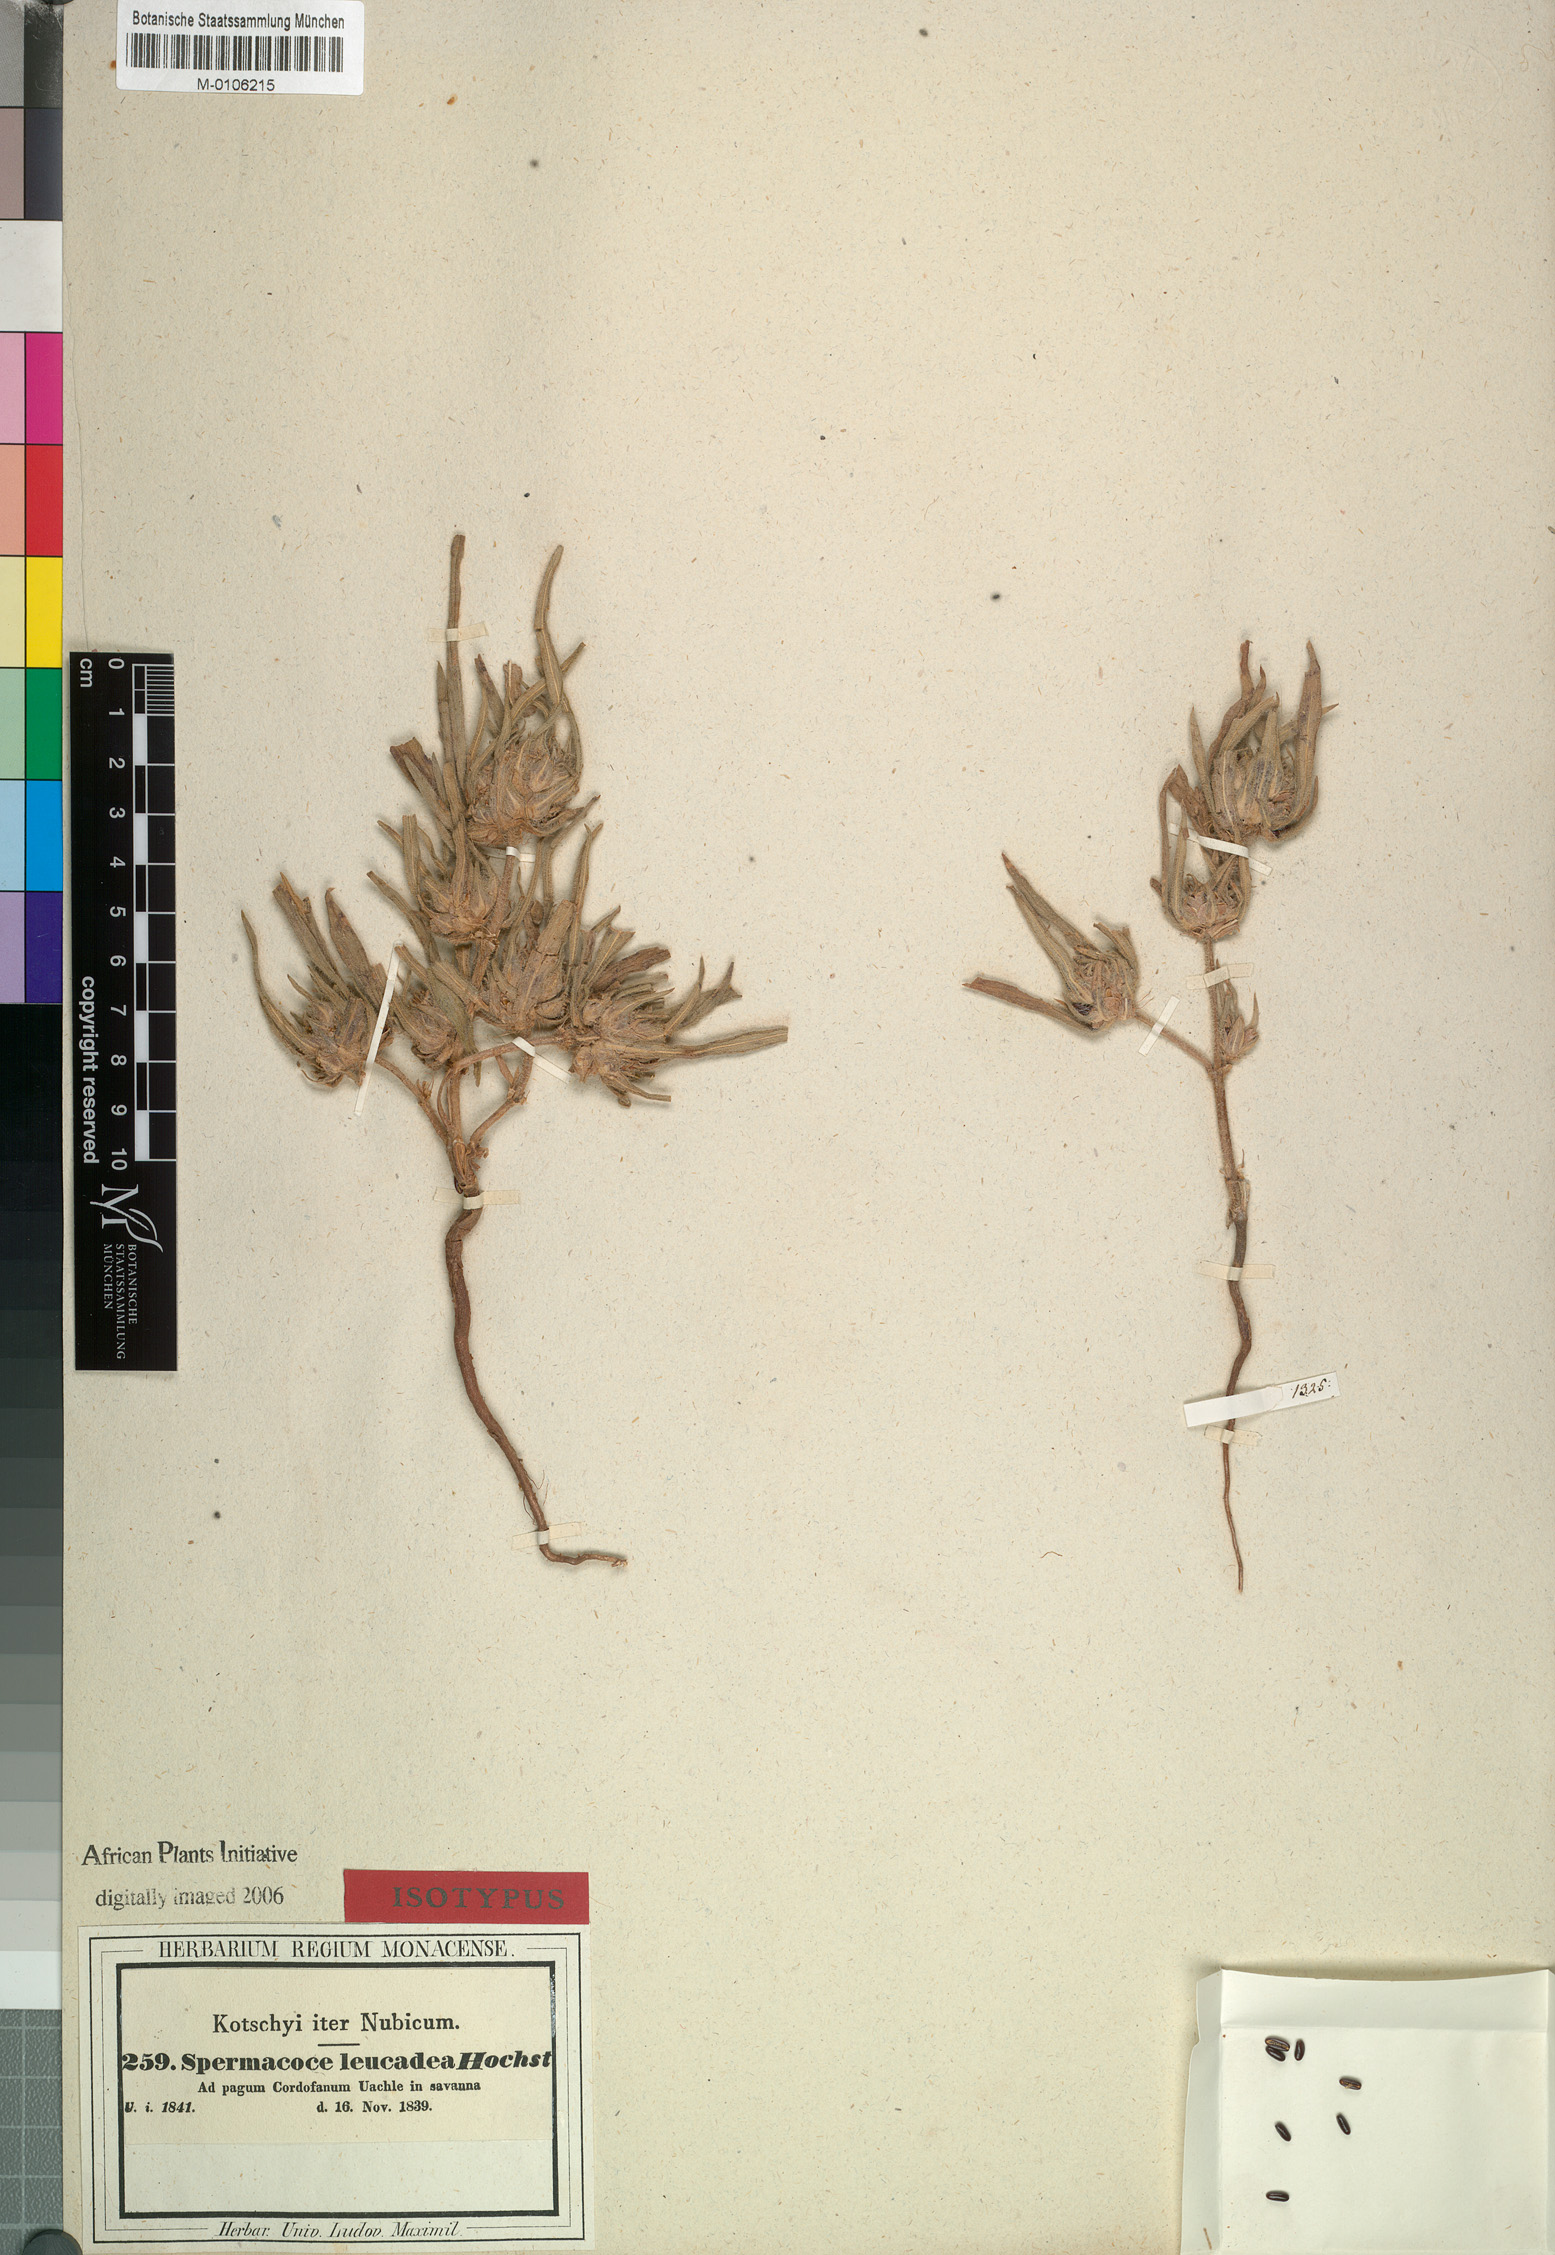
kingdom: Plantae
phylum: Tracheophyta
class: Magnoliopsida
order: Gentianales
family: Rubiaceae
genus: Spermacoce
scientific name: Spermacoce stachydea
